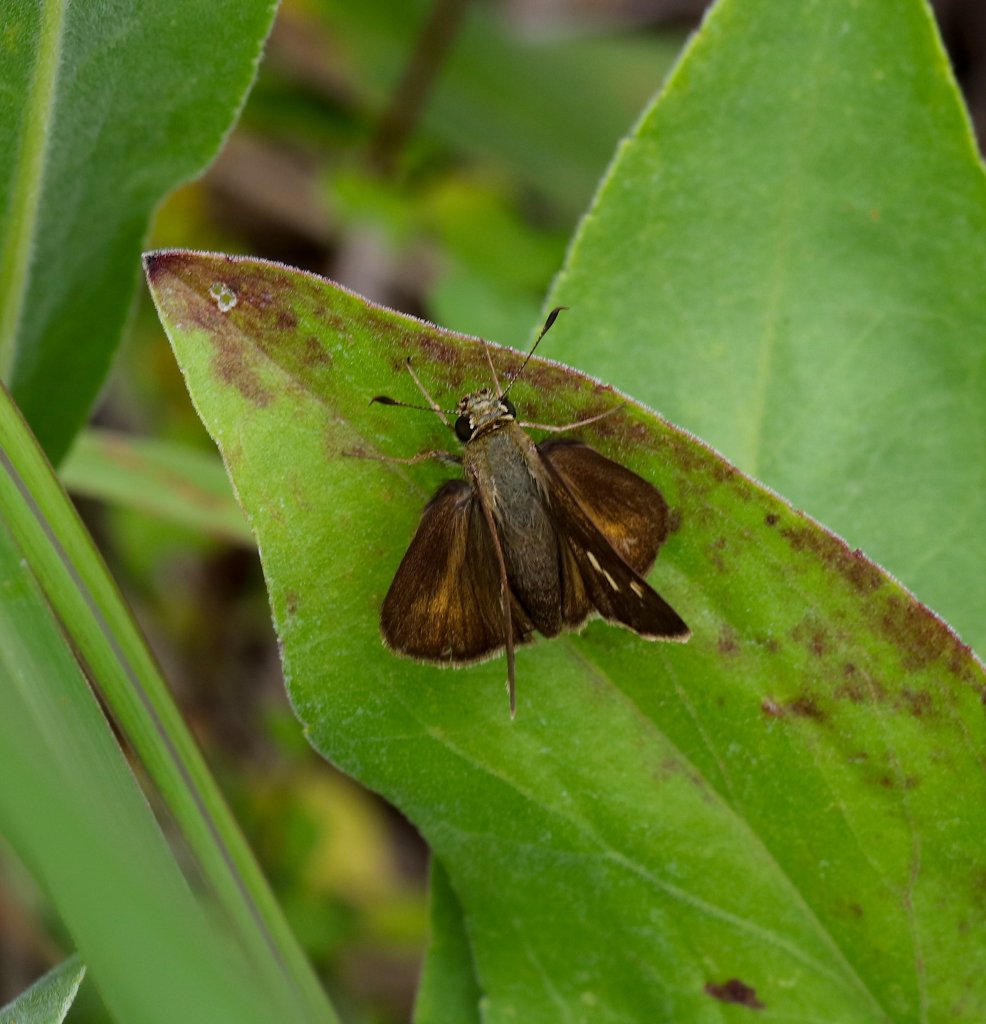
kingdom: Animalia
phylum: Arthropoda
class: Insecta
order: Lepidoptera
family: Hesperiidae
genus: Polites
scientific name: Polites egeremet
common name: Northern Broken-Dash
